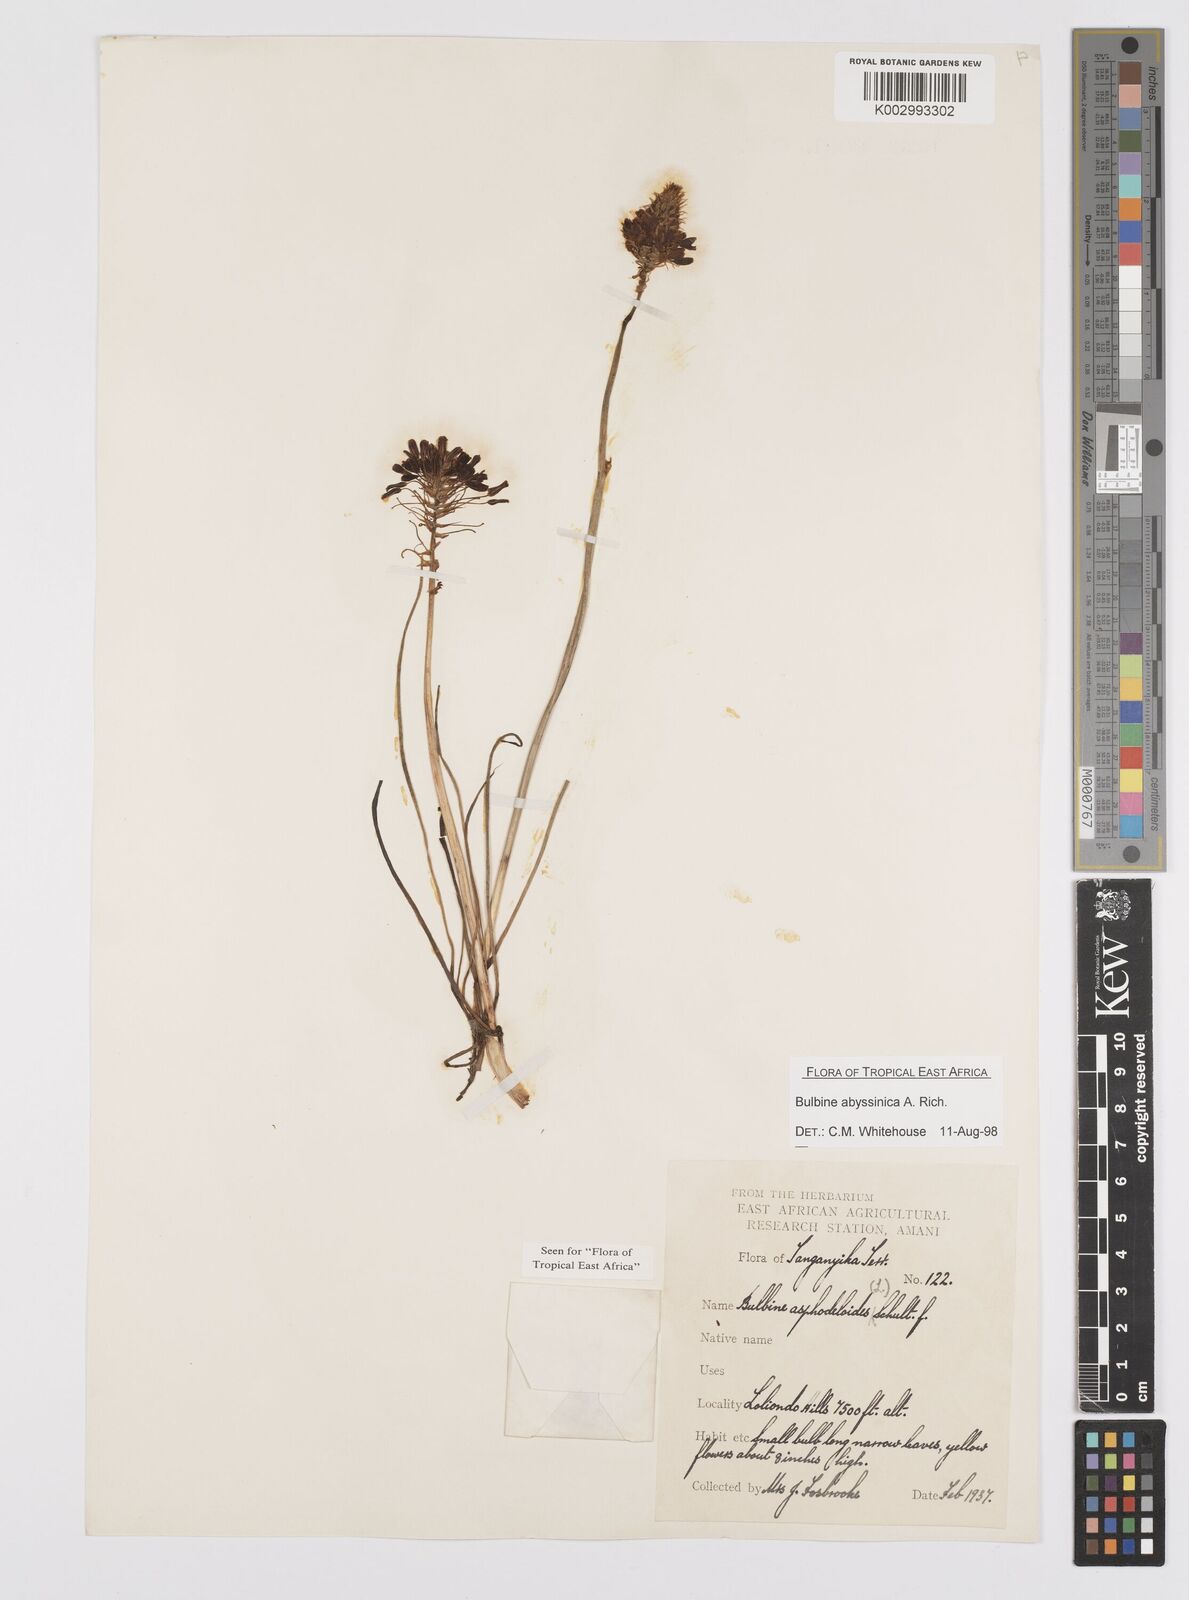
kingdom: Plantae
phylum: Tracheophyta
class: Liliopsida
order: Asparagales
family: Asphodelaceae
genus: Bulbine
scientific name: Bulbine abyssinica
